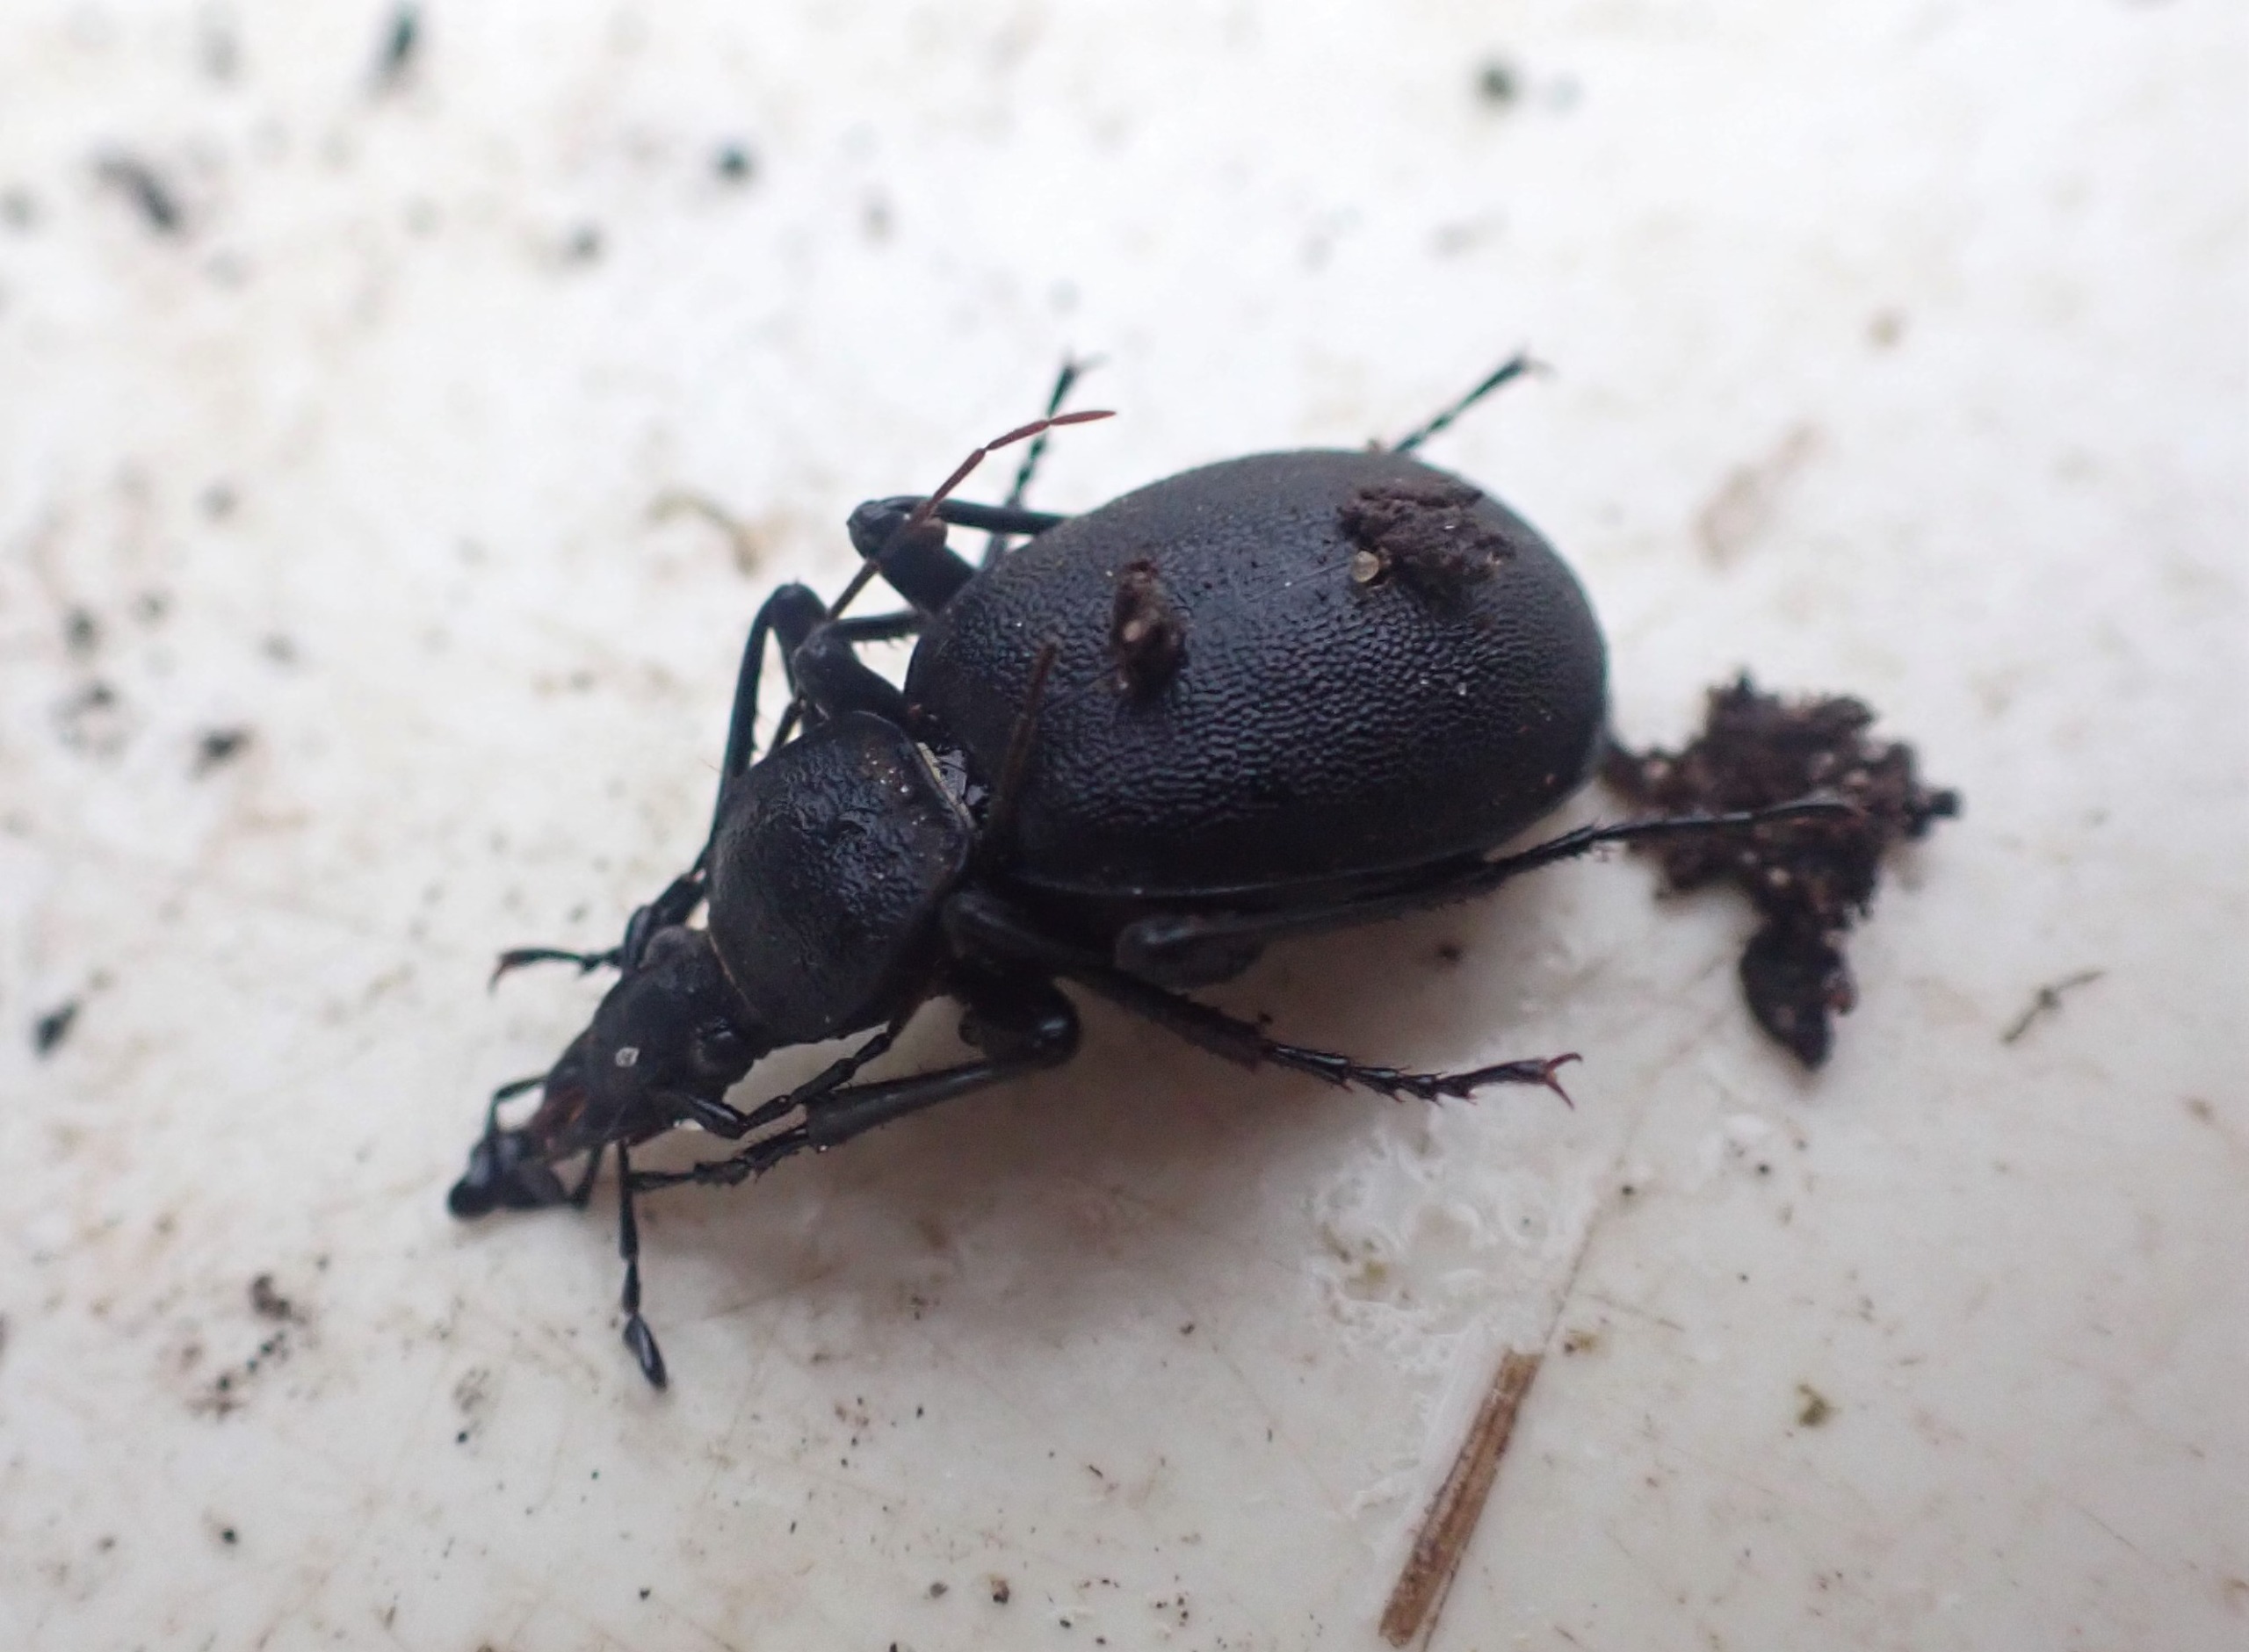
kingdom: Animalia
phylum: Arthropoda
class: Insecta
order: Coleoptera
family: Carabidae
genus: Cychrus
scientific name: Cychrus caraboides
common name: Sneglerøver
